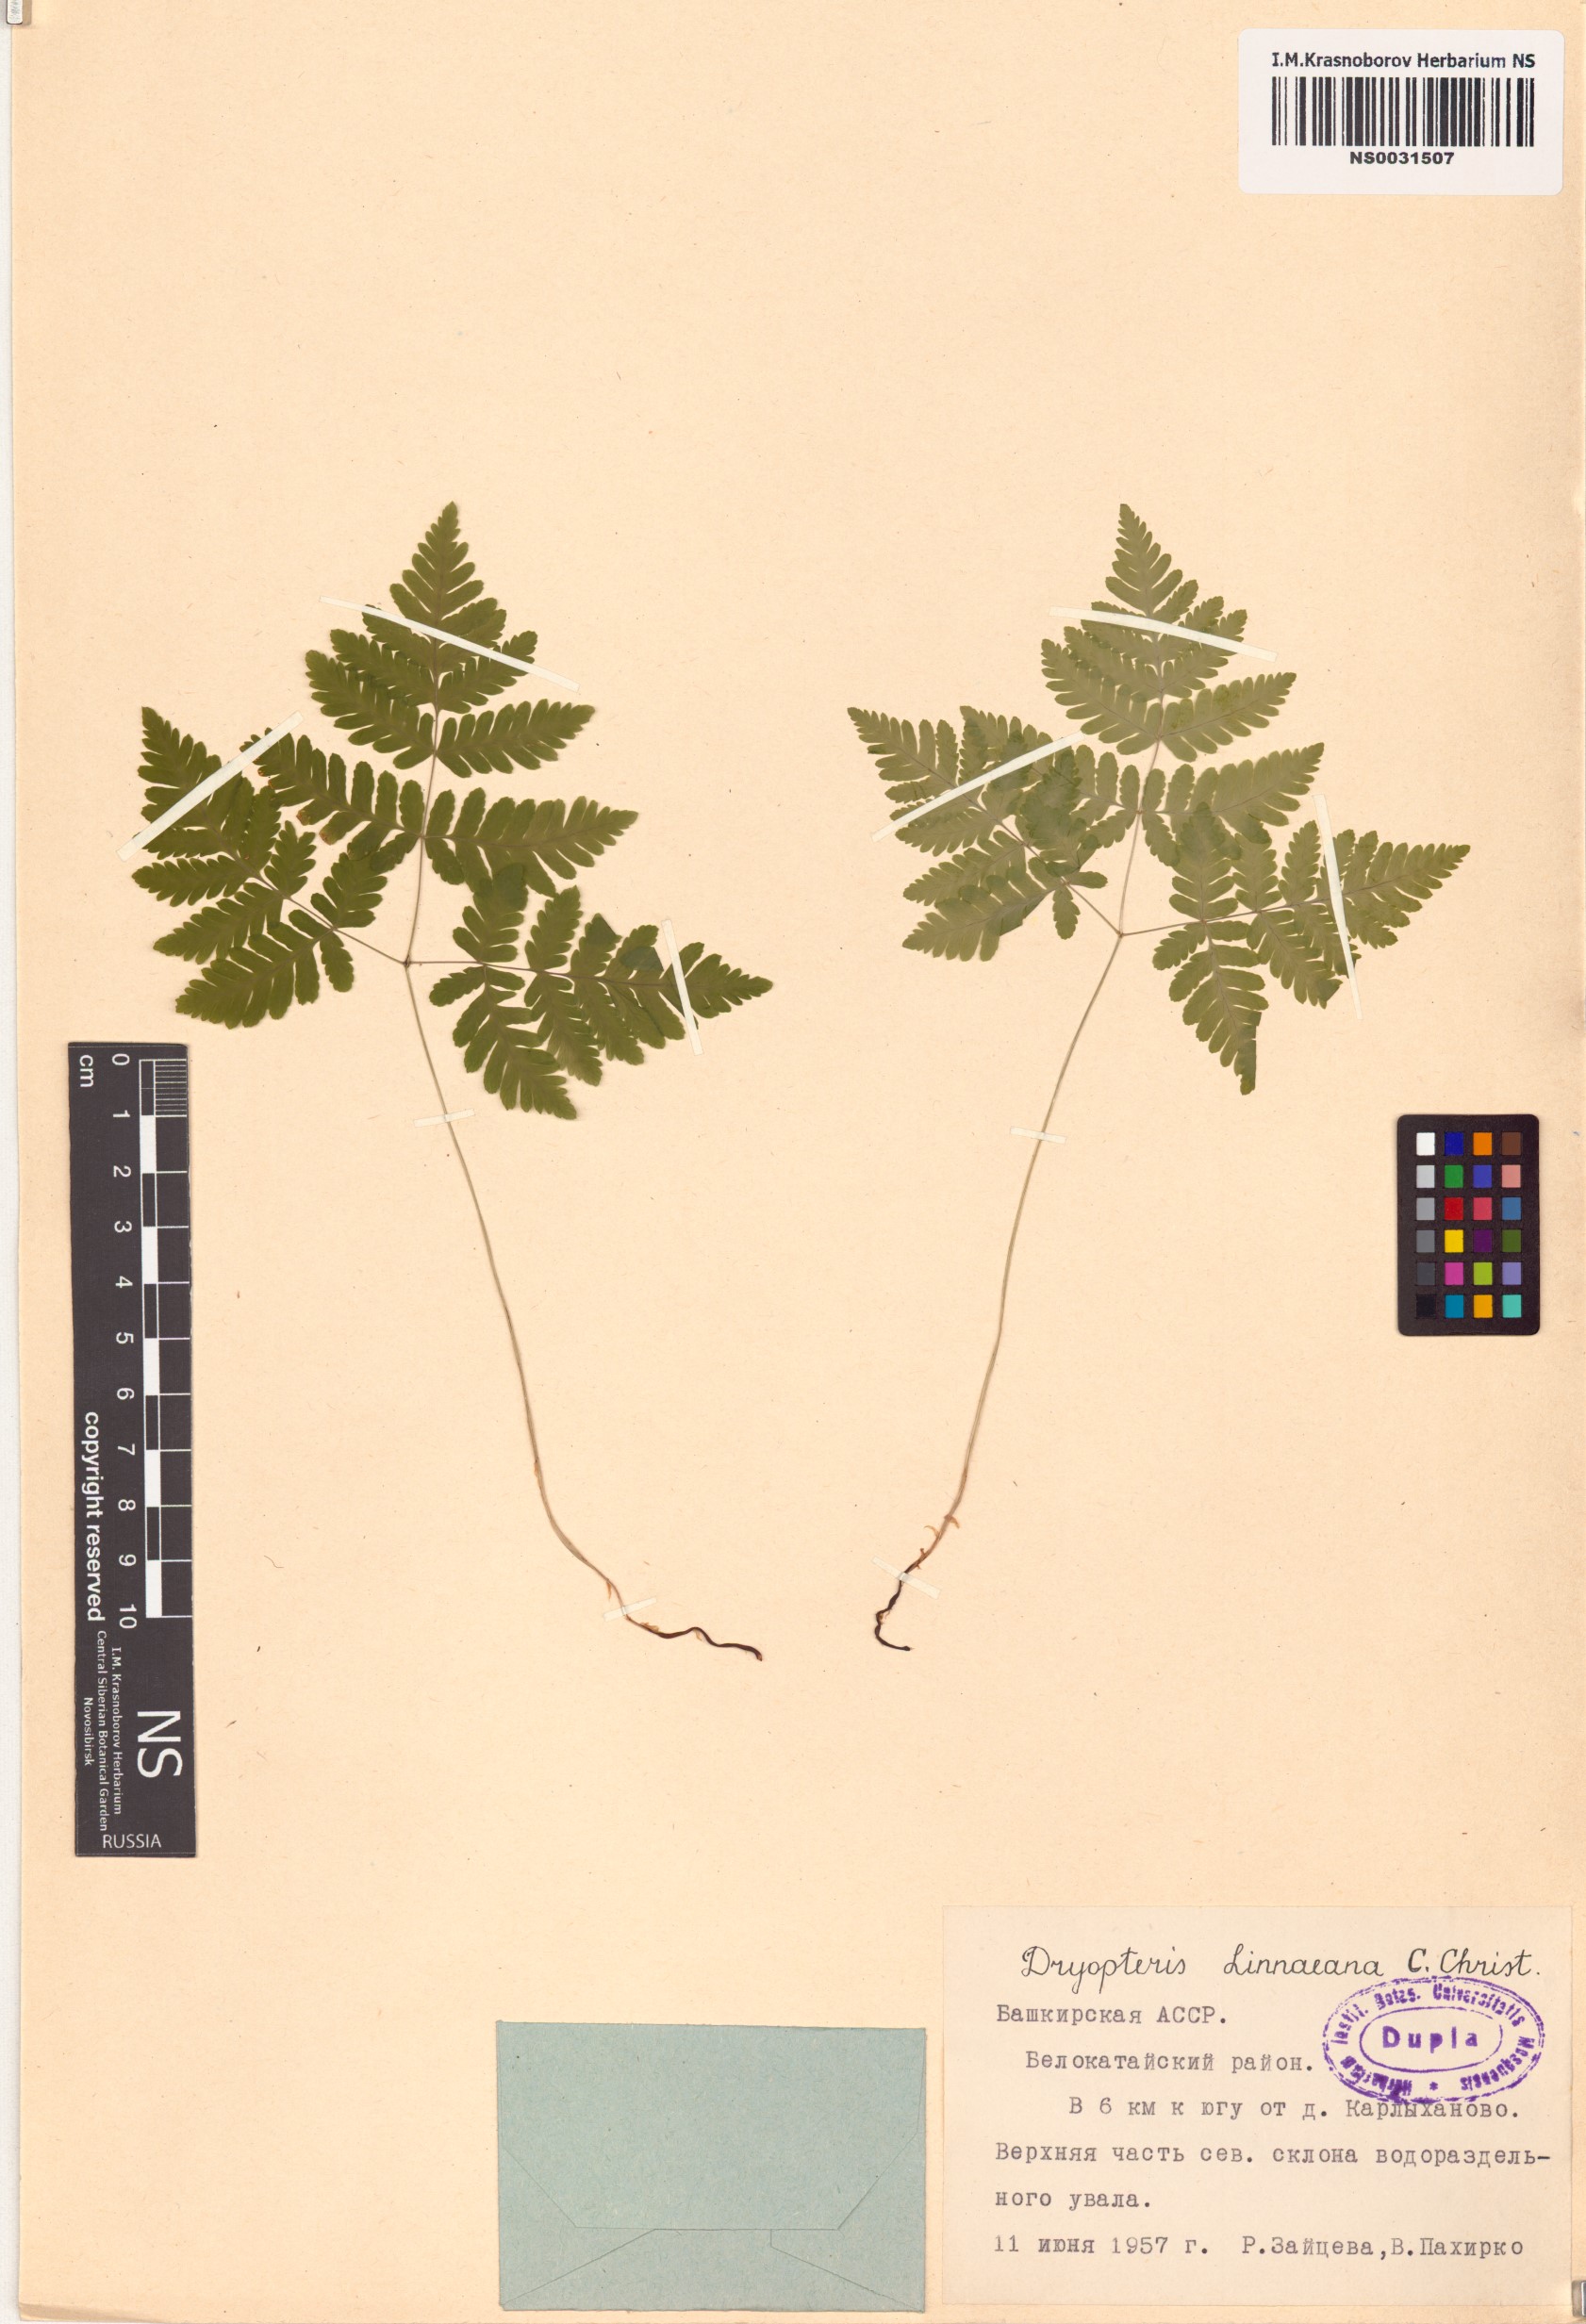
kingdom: Plantae
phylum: Tracheophyta
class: Polypodiopsida
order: Polypodiales
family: Cystopteridaceae
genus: Gymnocarpium
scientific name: Gymnocarpium dryopteris
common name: Oak fern
